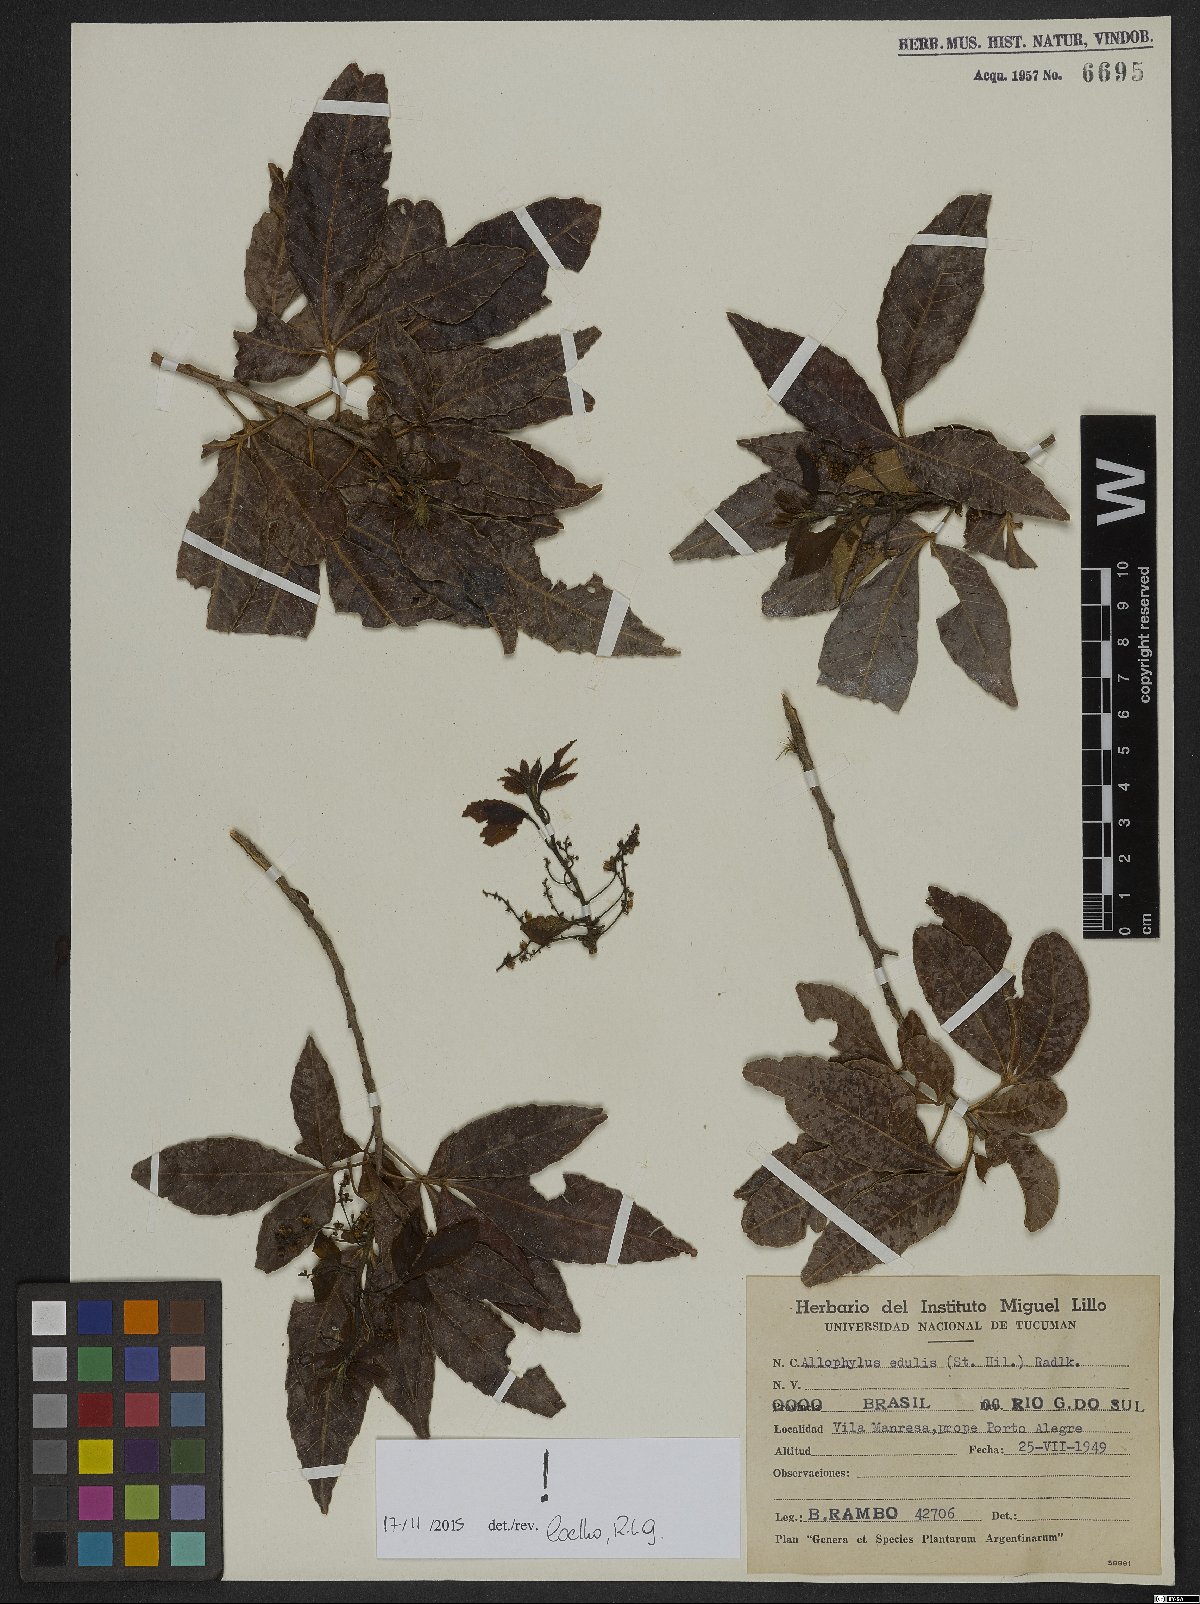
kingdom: Plantae
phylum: Tracheophyta
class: Magnoliopsida
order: Sapindales
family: Sapindaceae
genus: Allophylus
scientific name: Allophylus edulis
